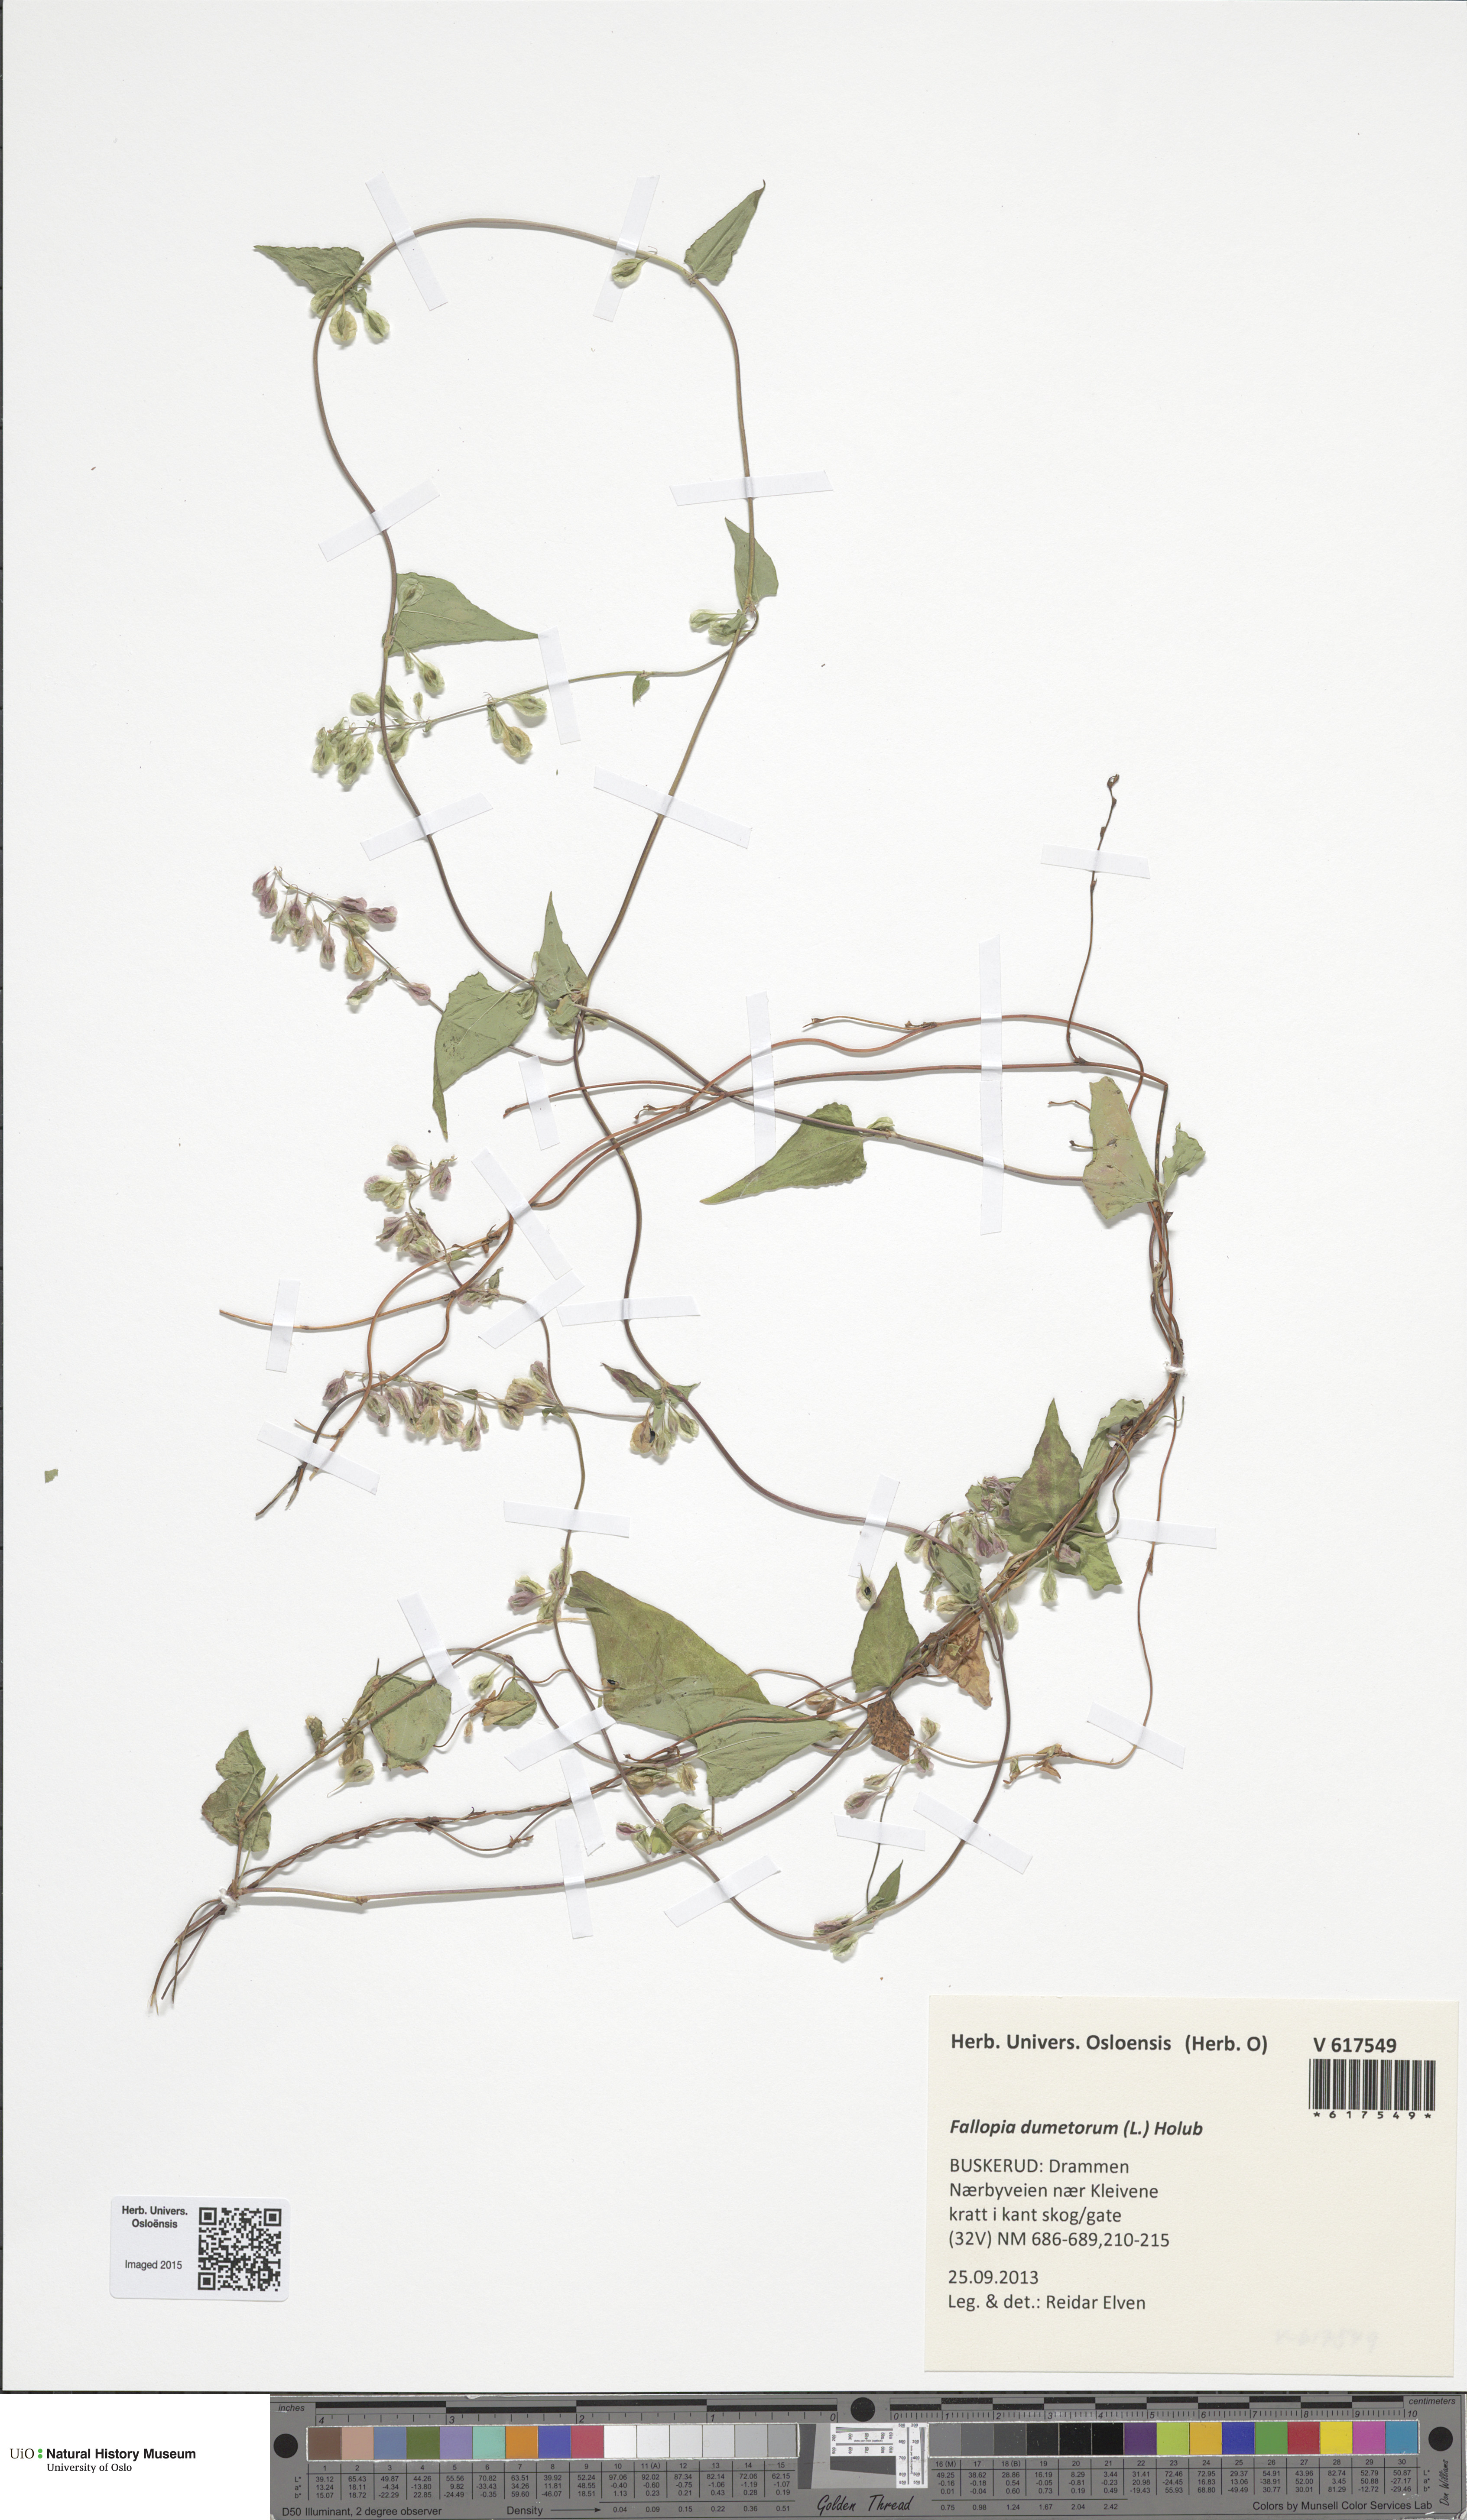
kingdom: Plantae
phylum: Tracheophyta
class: Magnoliopsida
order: Caryophyllales
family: Polygonaceae
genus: Fallopia
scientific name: Fallopia dumetorum
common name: Copse-bindweed
